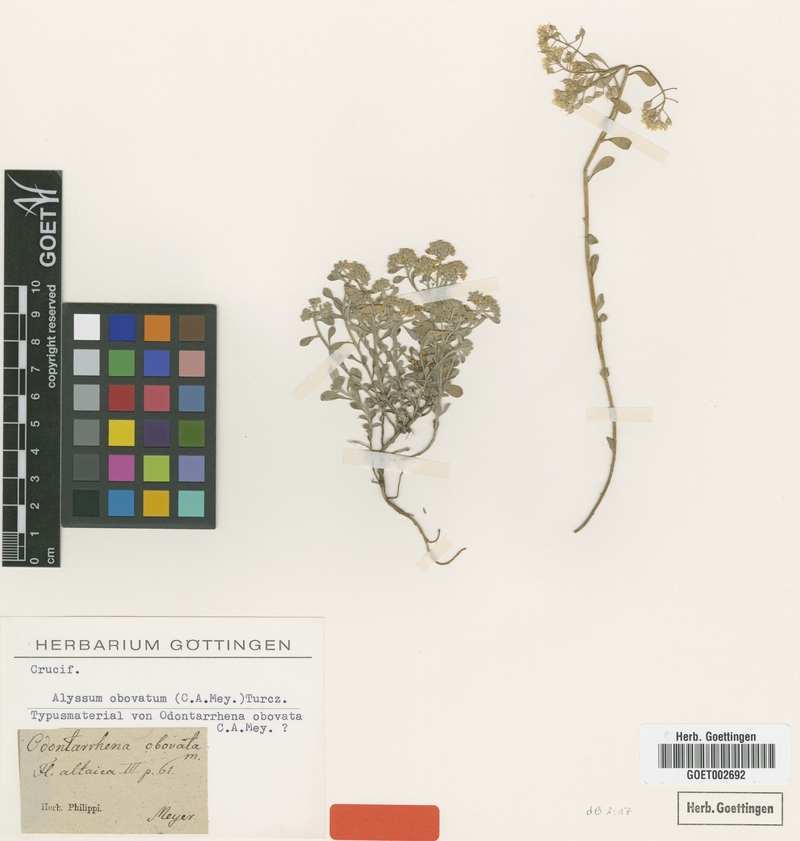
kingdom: Plantae
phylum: Tracheophyta
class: Magnoliopsida
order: Brassicales
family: Brassicaceae
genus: Odontarrhena
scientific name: Odontarrhena obovata
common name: American alyssum
